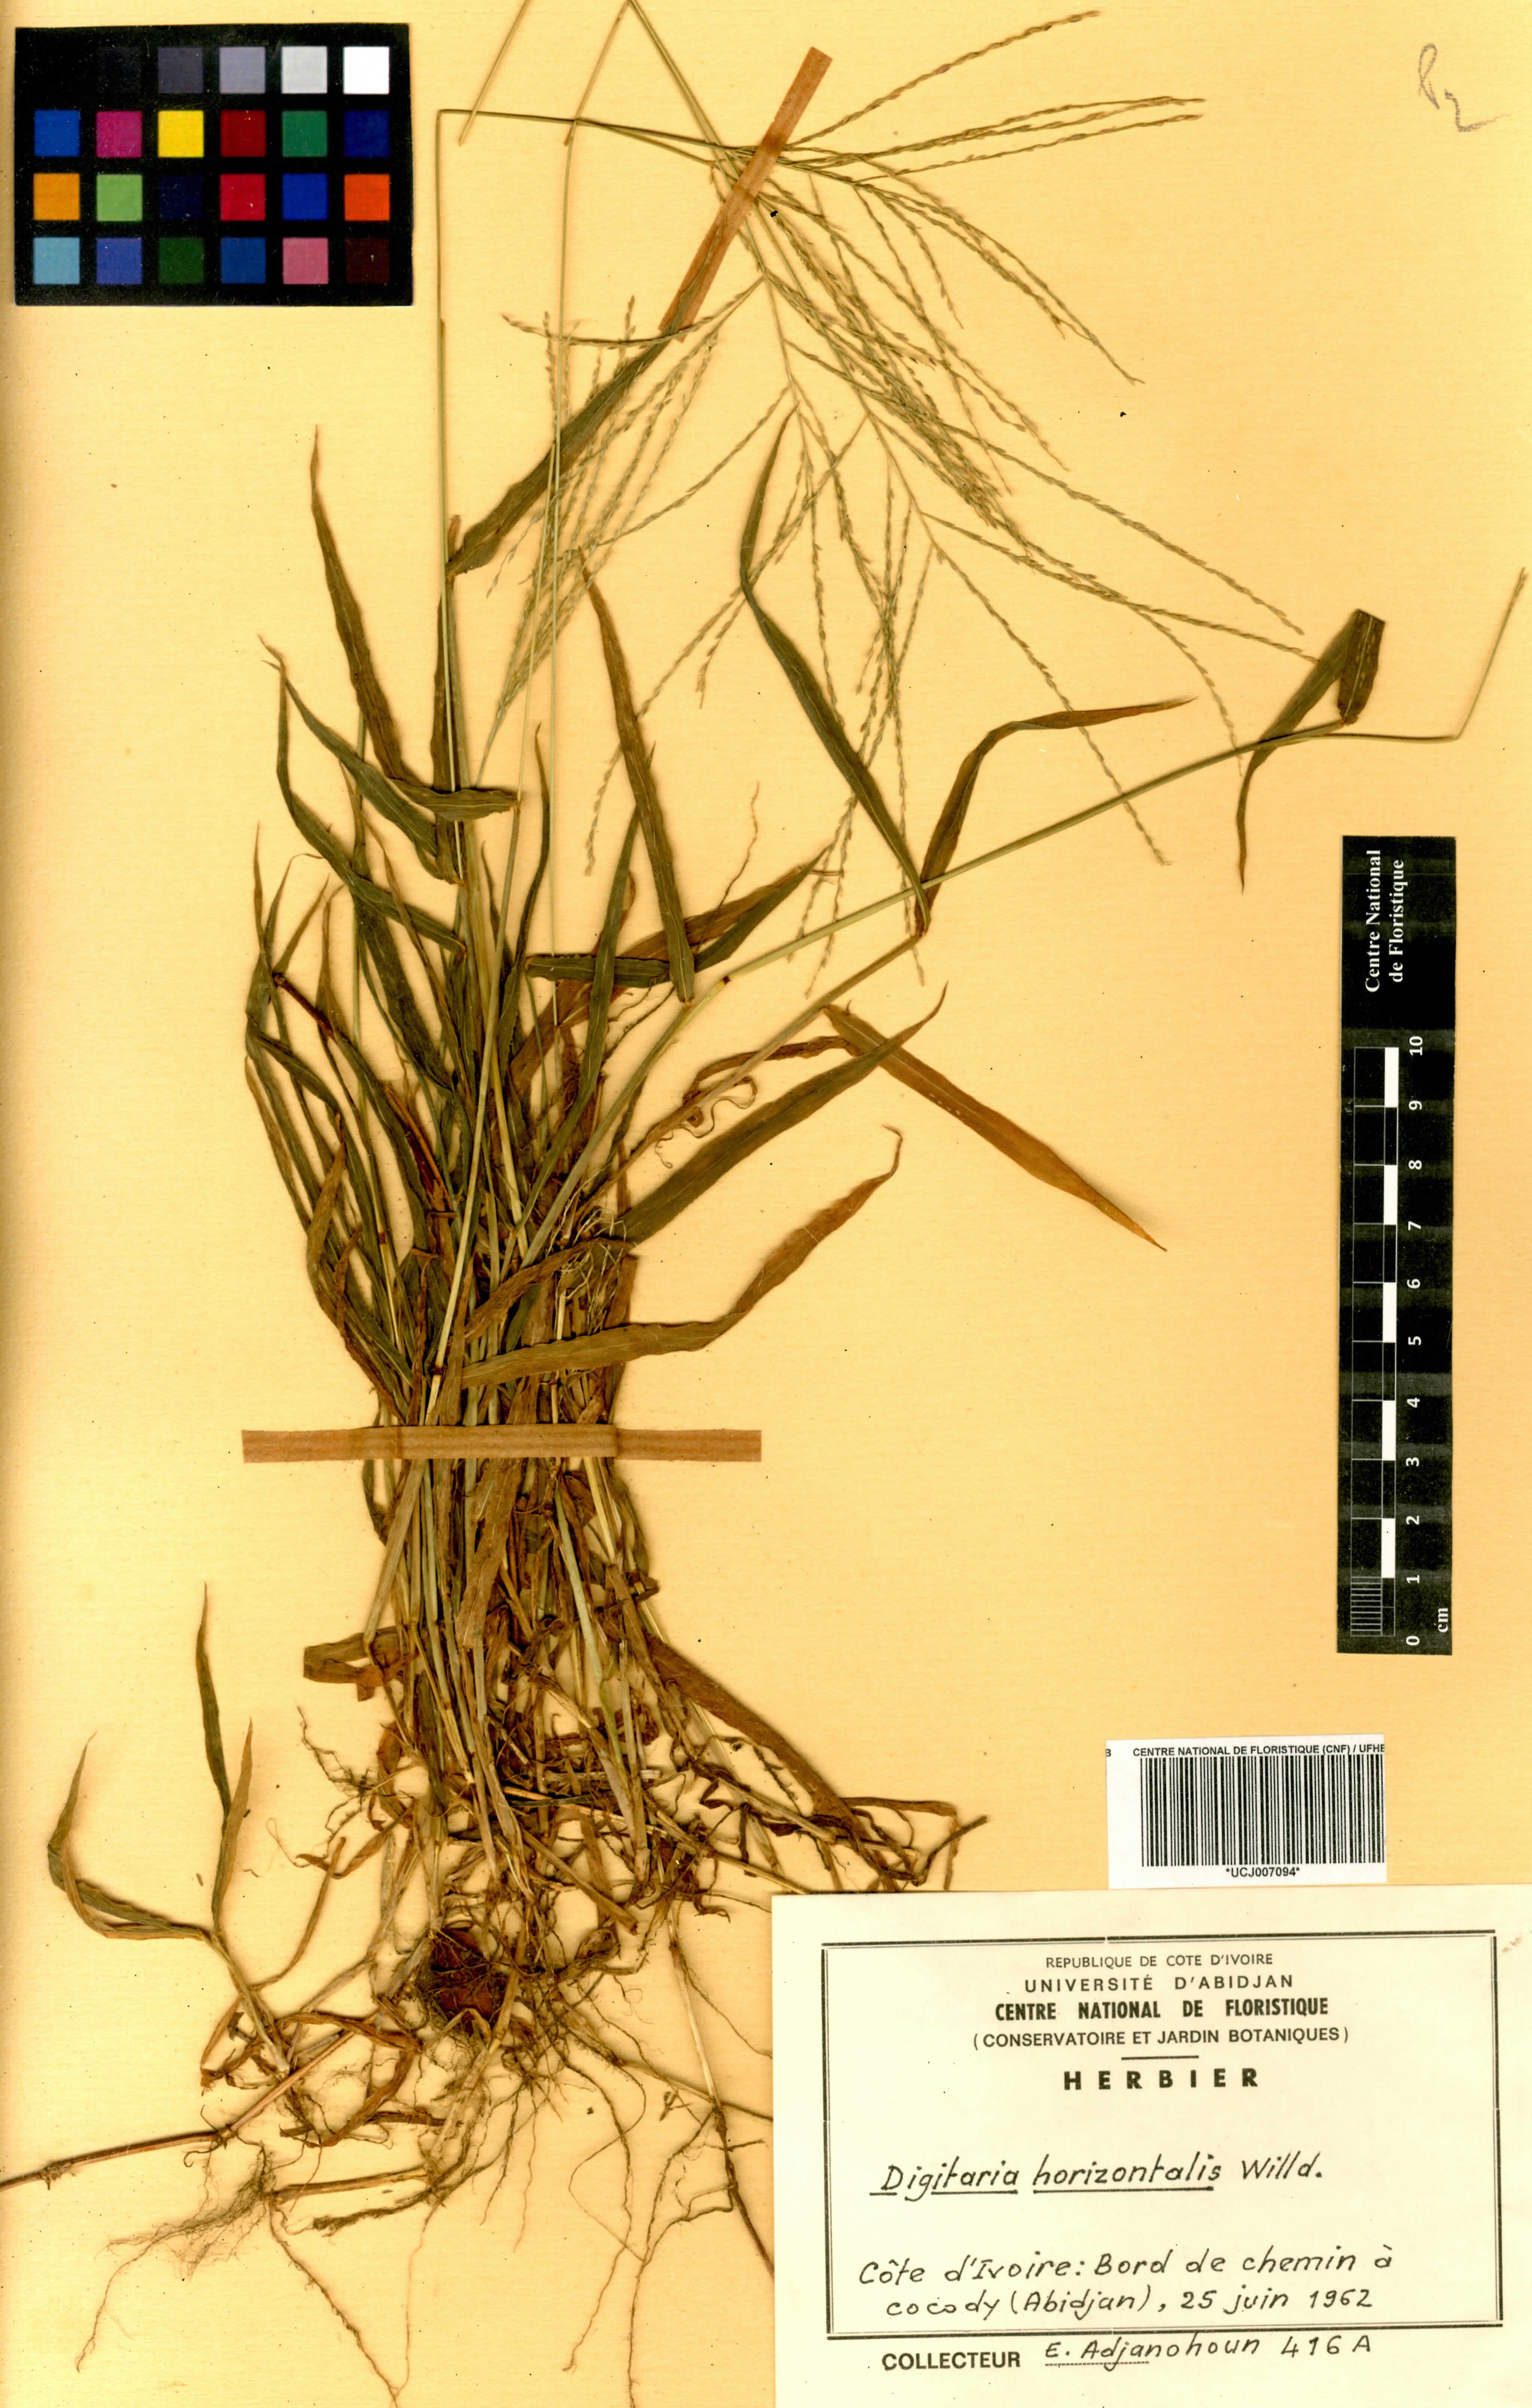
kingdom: Plantae
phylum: Tracheophyta
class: Liliopsida
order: Poales
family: Poaceae
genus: Digitaria
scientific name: Digitaria horizontalis
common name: Jamaican crabgrass
